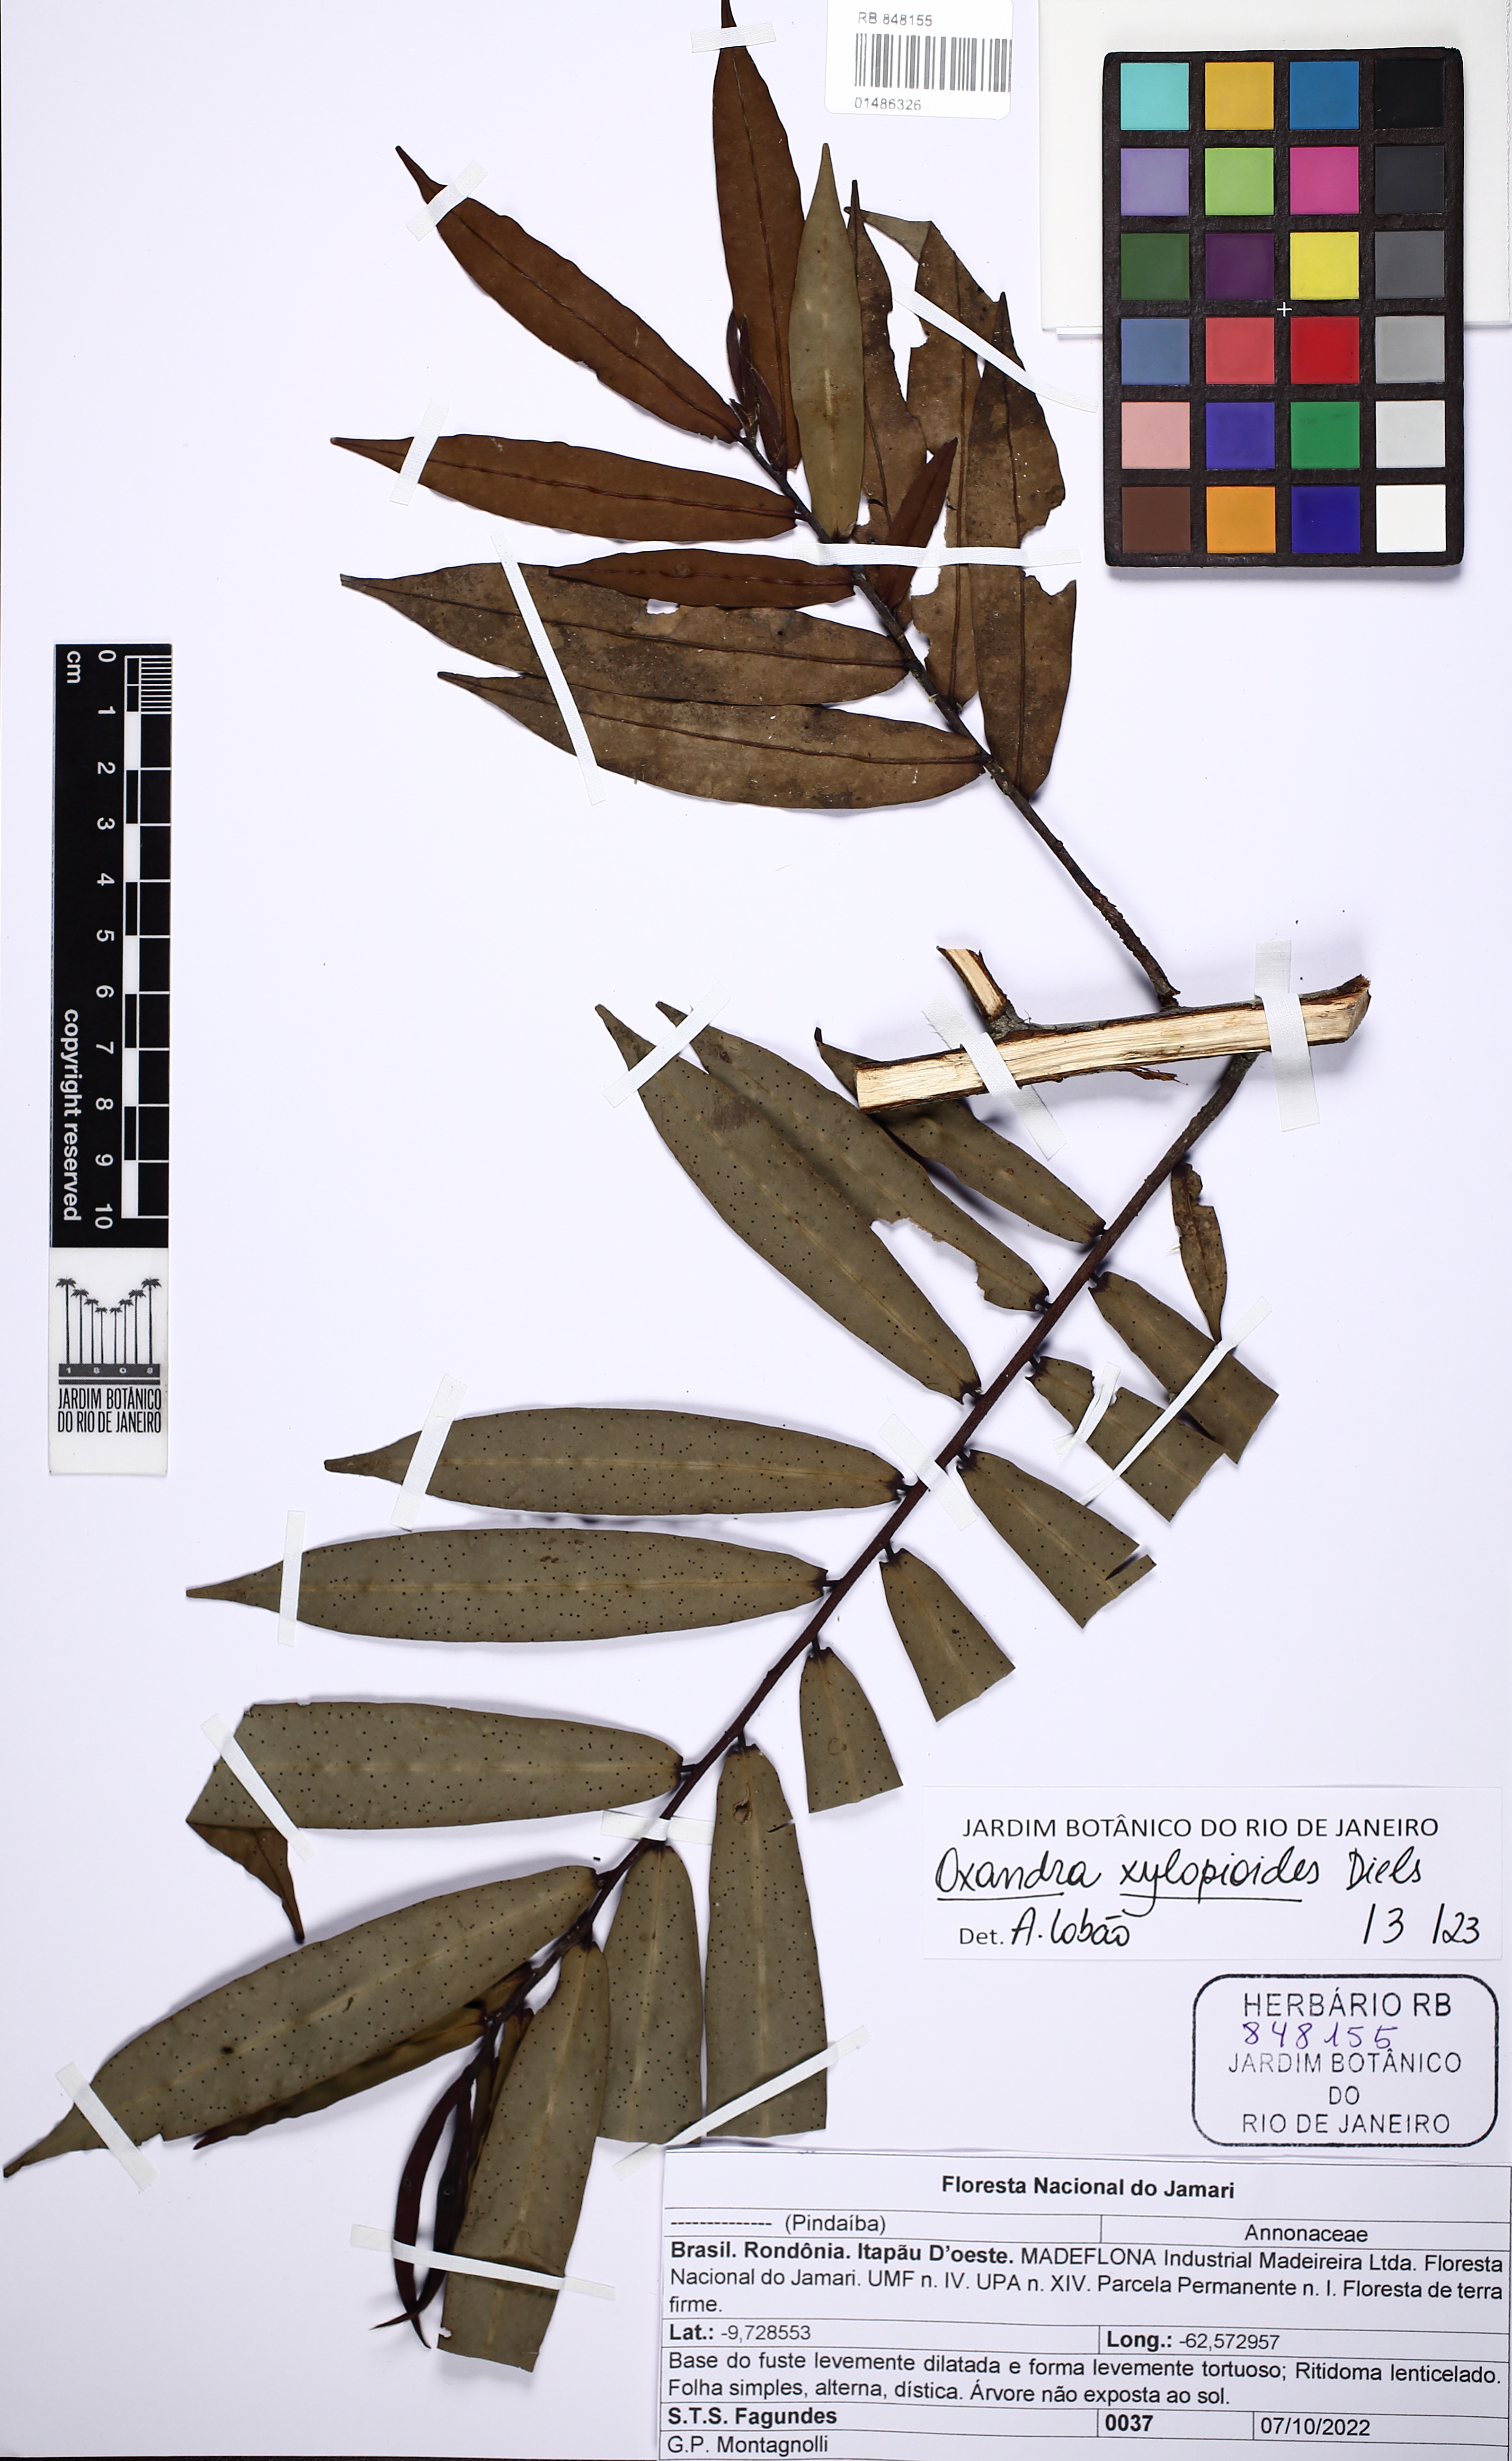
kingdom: Plantae
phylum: Tracheophyta
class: Magnoliopsida
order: Magnoliales
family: Annonaceae
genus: Oxandra
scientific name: Oxandra xylopioides
